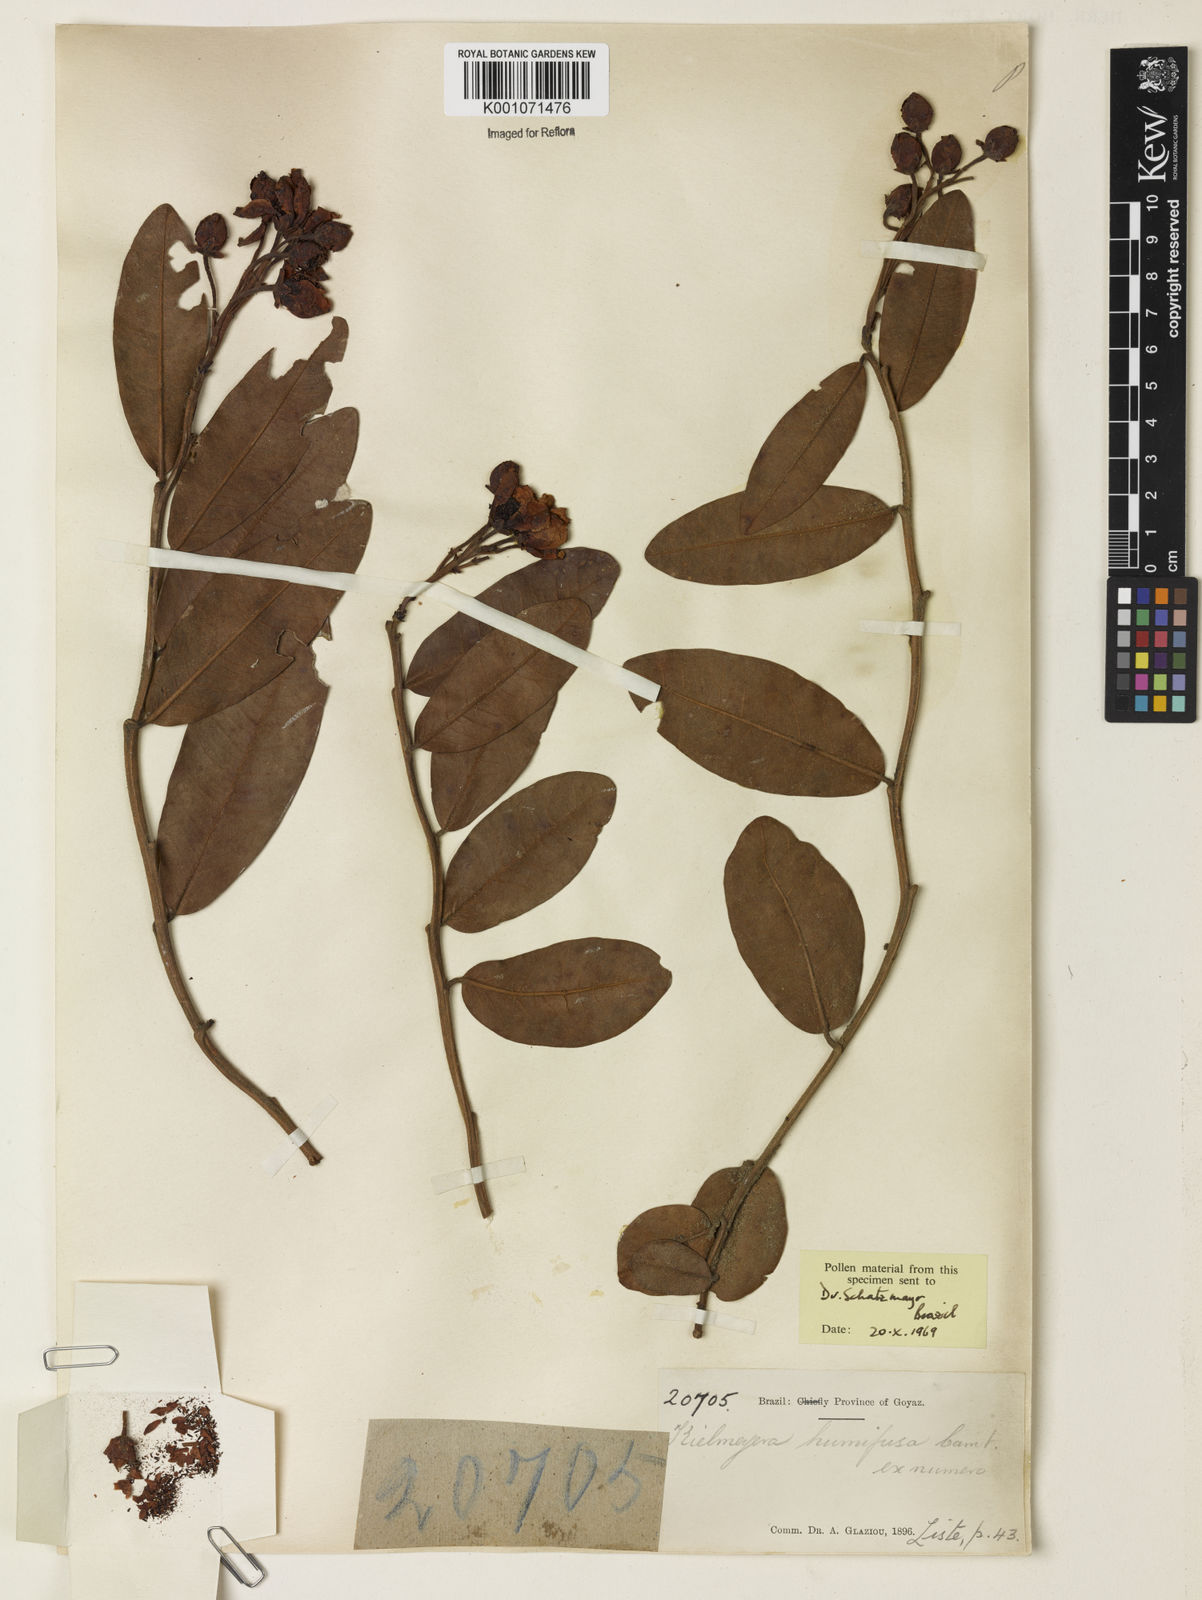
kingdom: Plantae
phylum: Tracheophyta
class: Magnoliopsida
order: Malpighiales
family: Calophyllaceae
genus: Kielmeyera
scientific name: Kielmeyera humifusa
